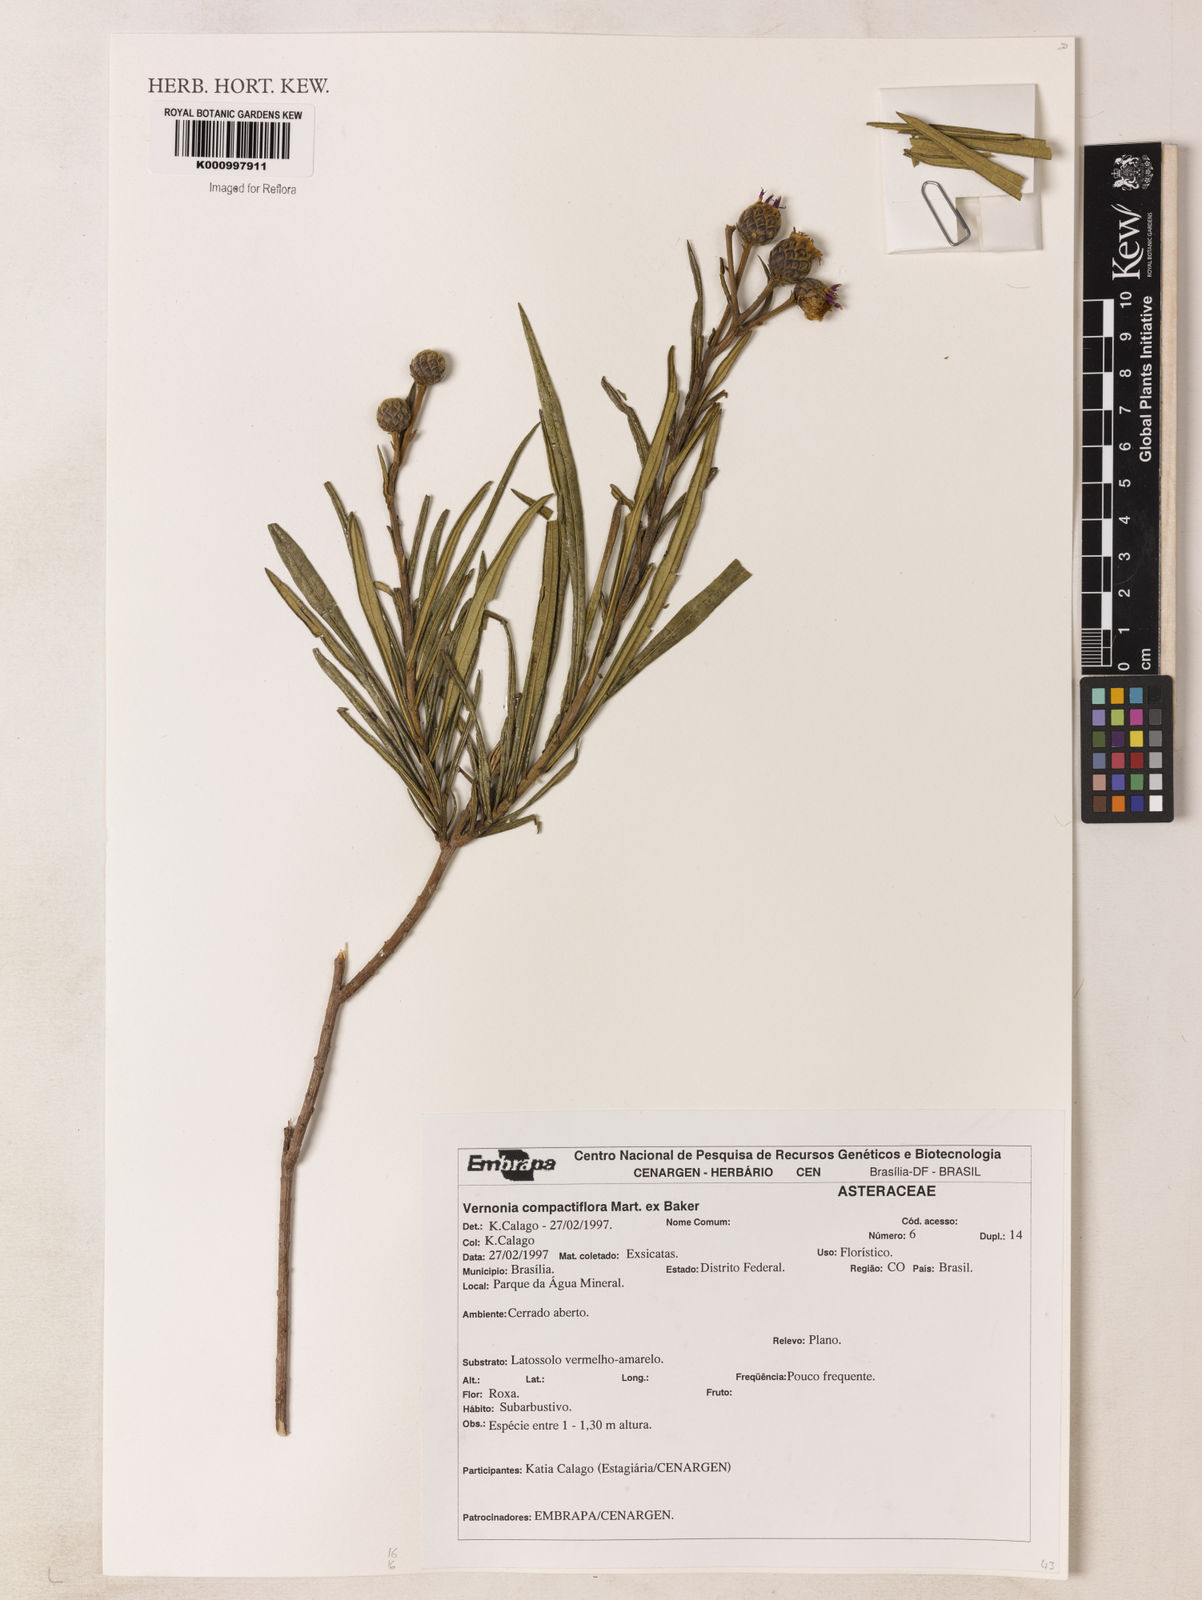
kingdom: Plantae
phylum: Tracheophyta
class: Magnoliopsida
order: Asterales
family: Asteraceae
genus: Lessingianthus
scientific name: Lessingianthus compactiflorus
